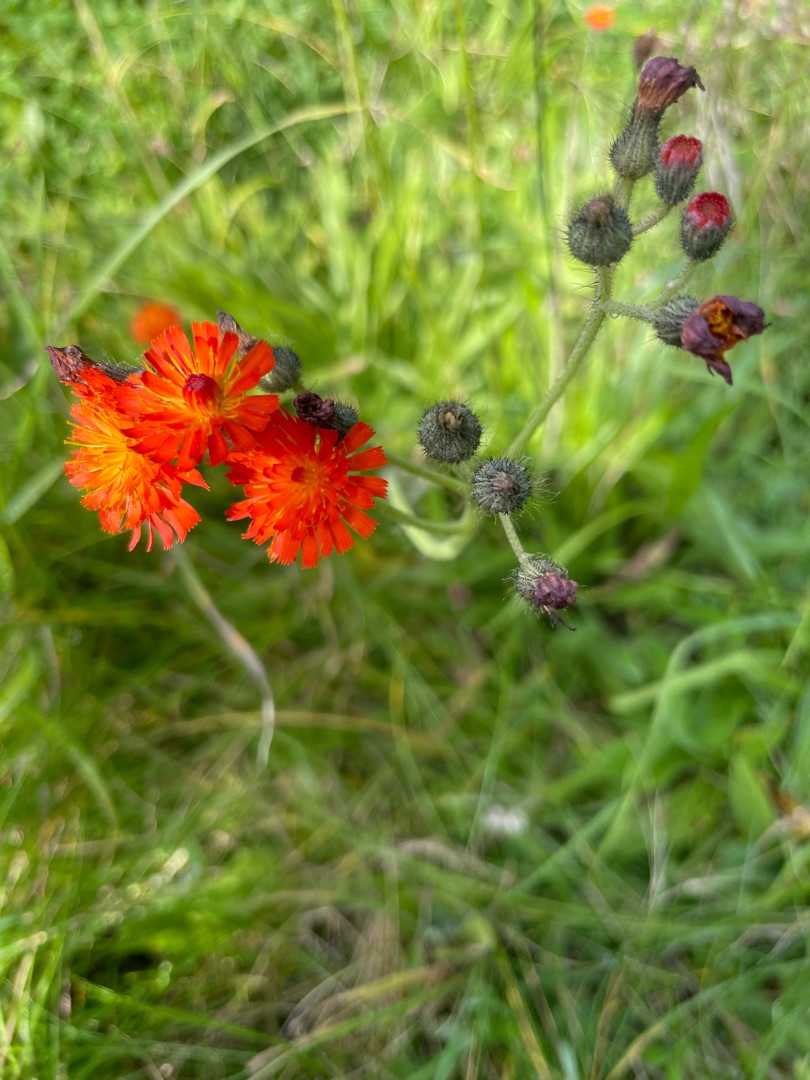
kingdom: Plantae
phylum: Tracheophyta
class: Magnoliopsida
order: Asterales
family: Asteraceae
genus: Pilosella
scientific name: Pilosella aurantiaca
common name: Pomerans-høgeurt
